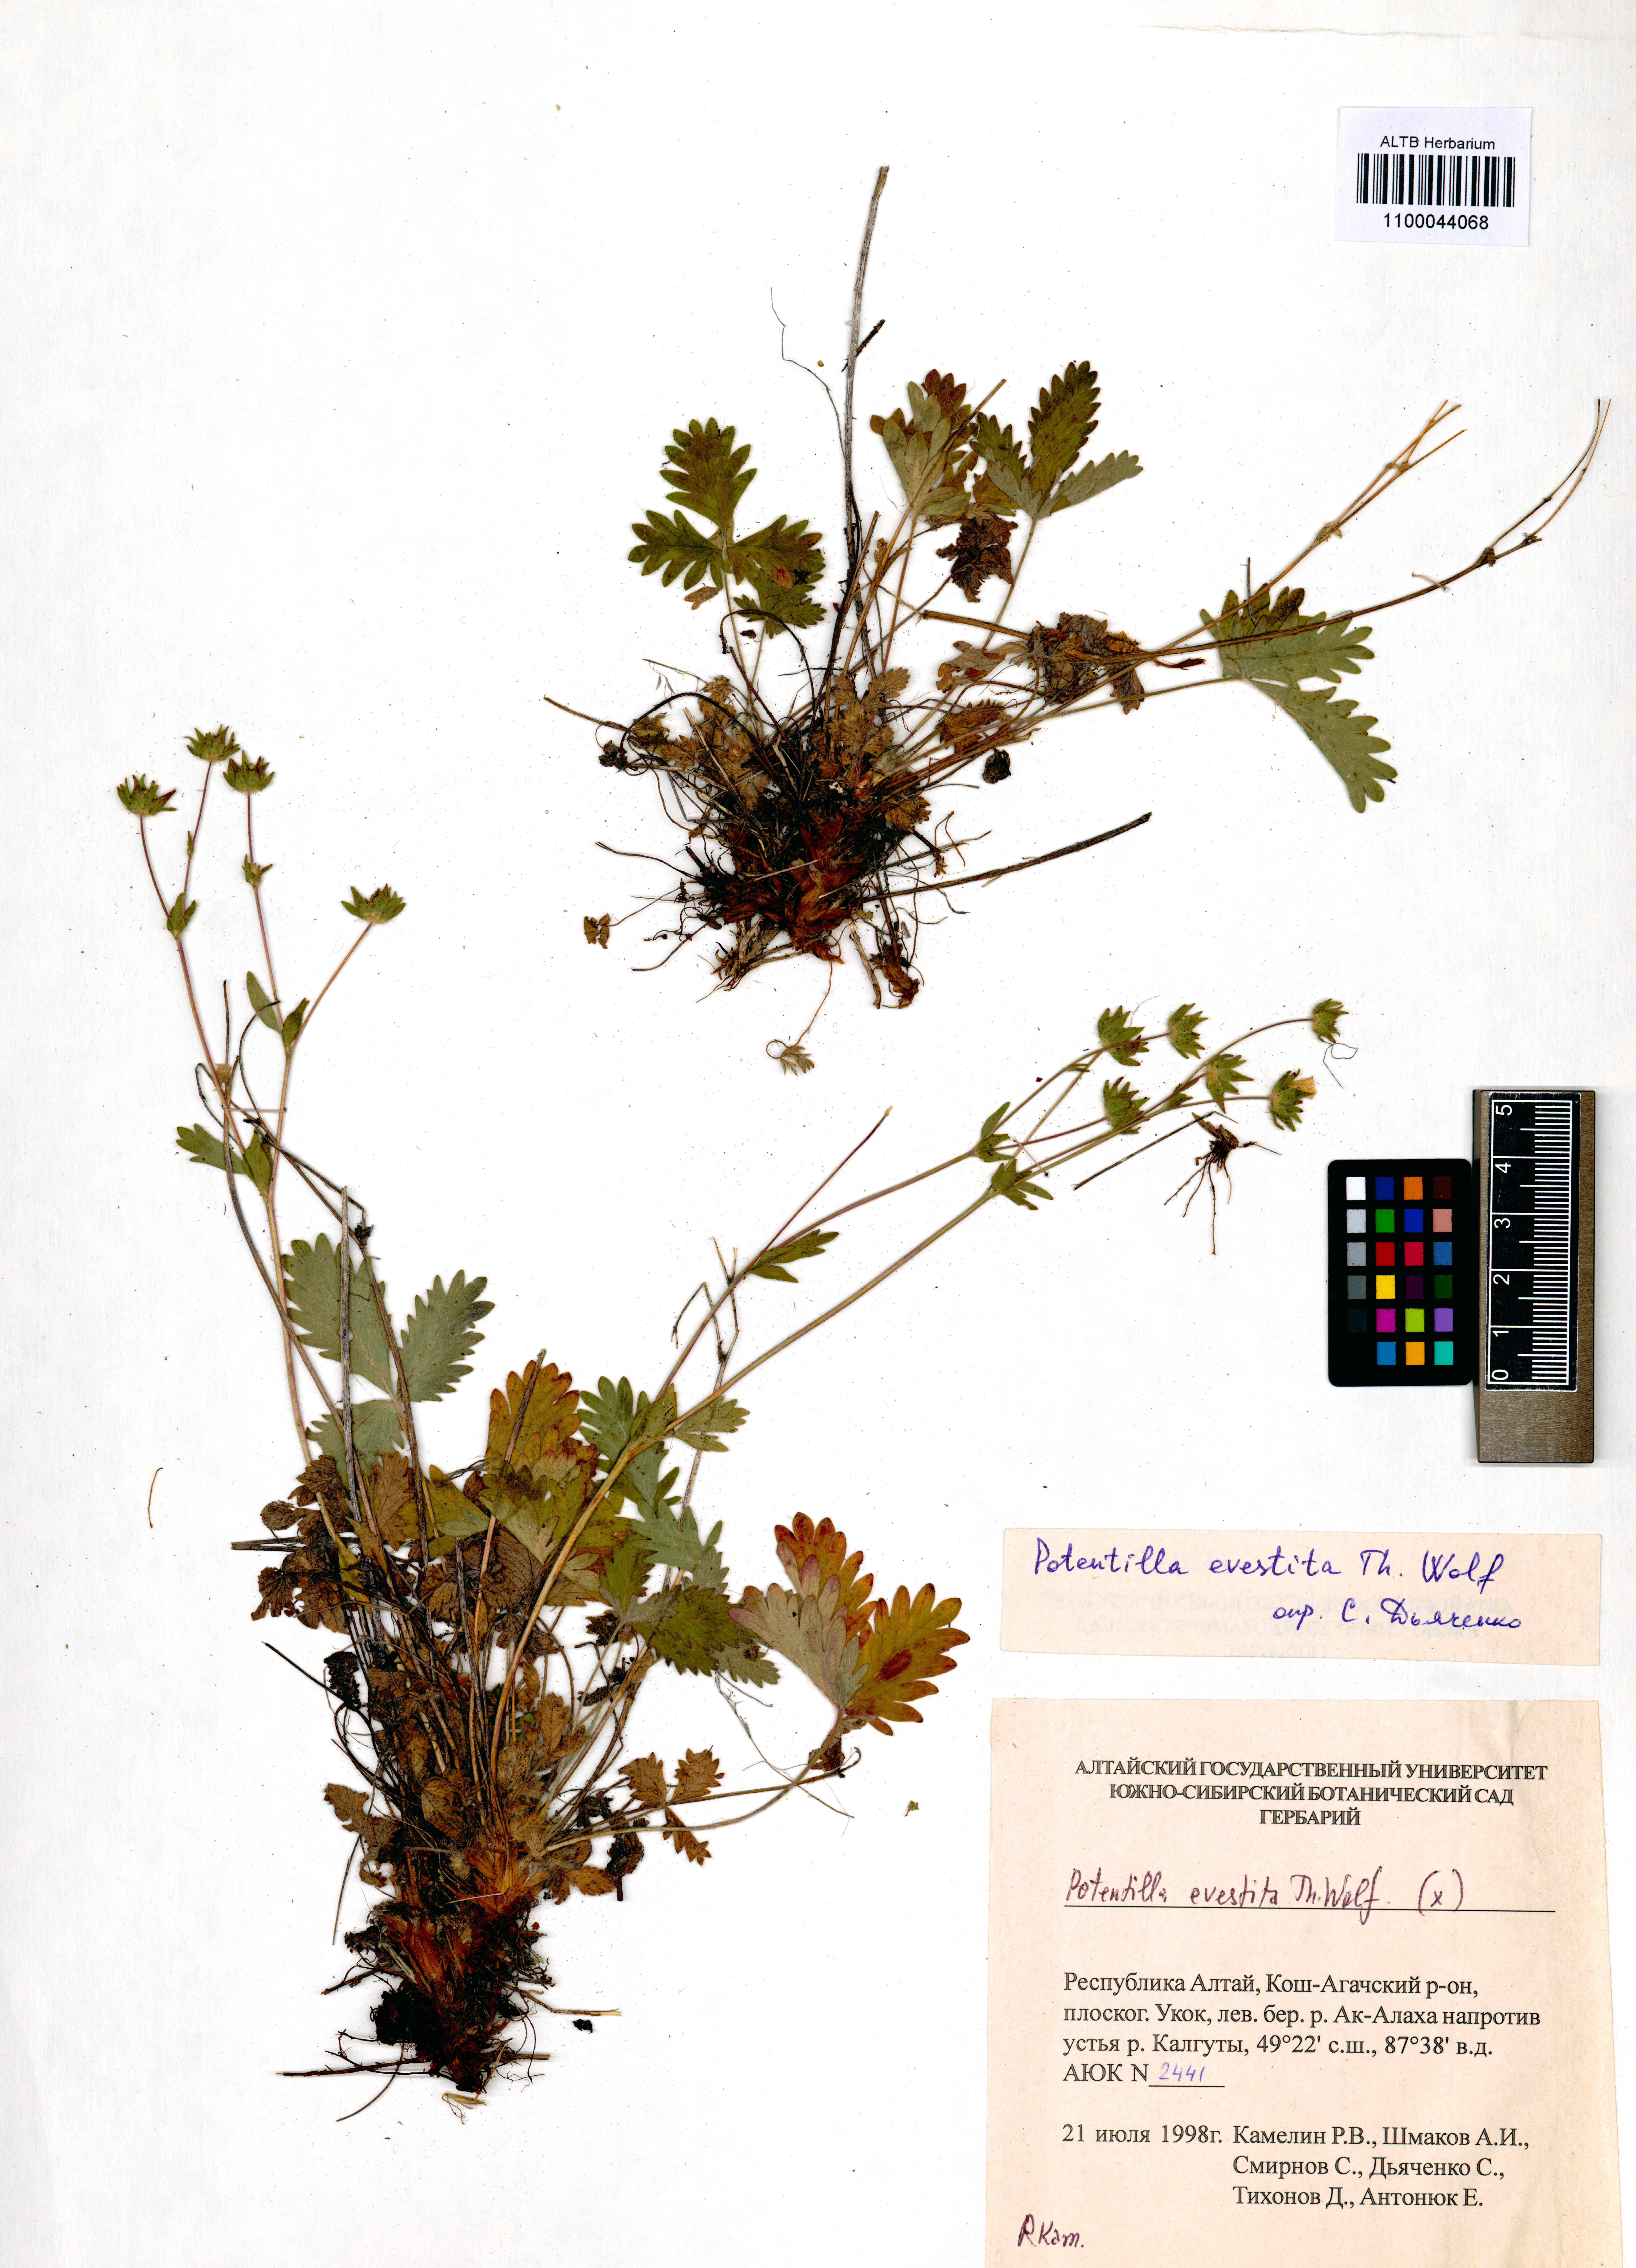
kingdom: Plantae
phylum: Tracheophyta
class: Magnoliopsida
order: Rosales
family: Rosaceae
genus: Potentilla
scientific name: Potentilla evestita
